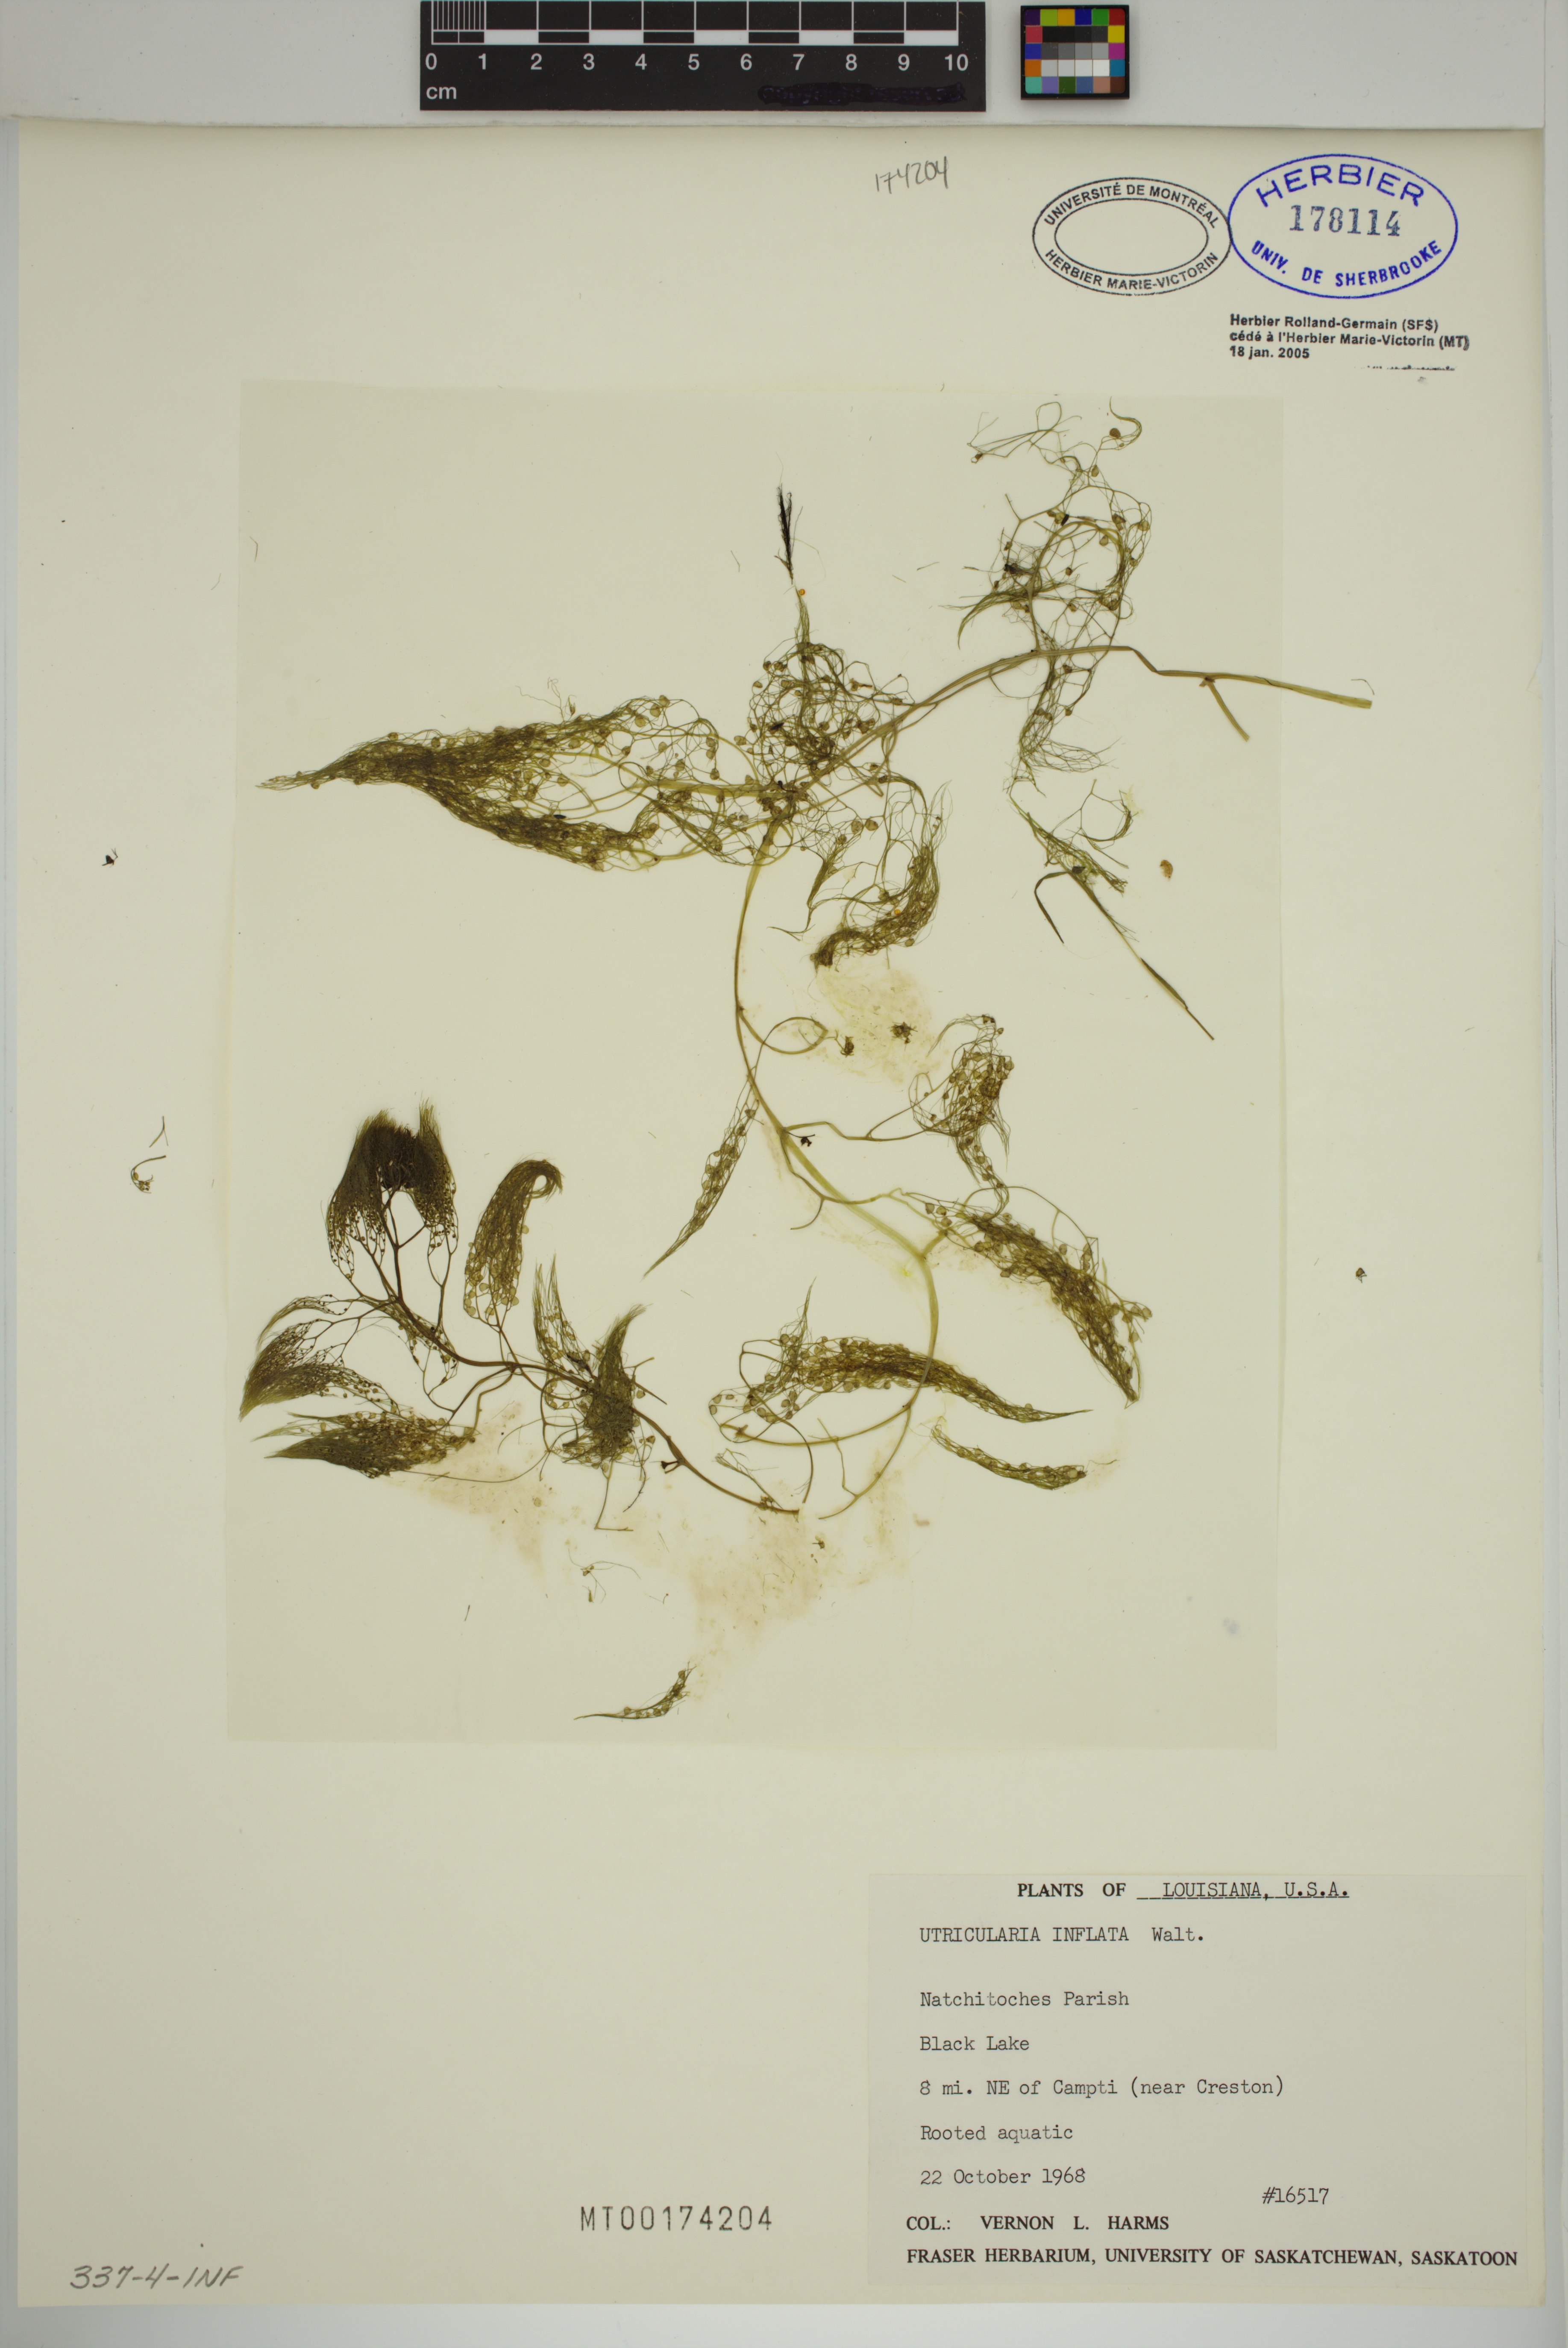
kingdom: Plantae
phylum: Tracheophyta
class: Magnoliopsida
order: Lamiales
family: Lentibulariaceae
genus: Utricularia
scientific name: Utricularia inflata
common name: Floating bladderwort
